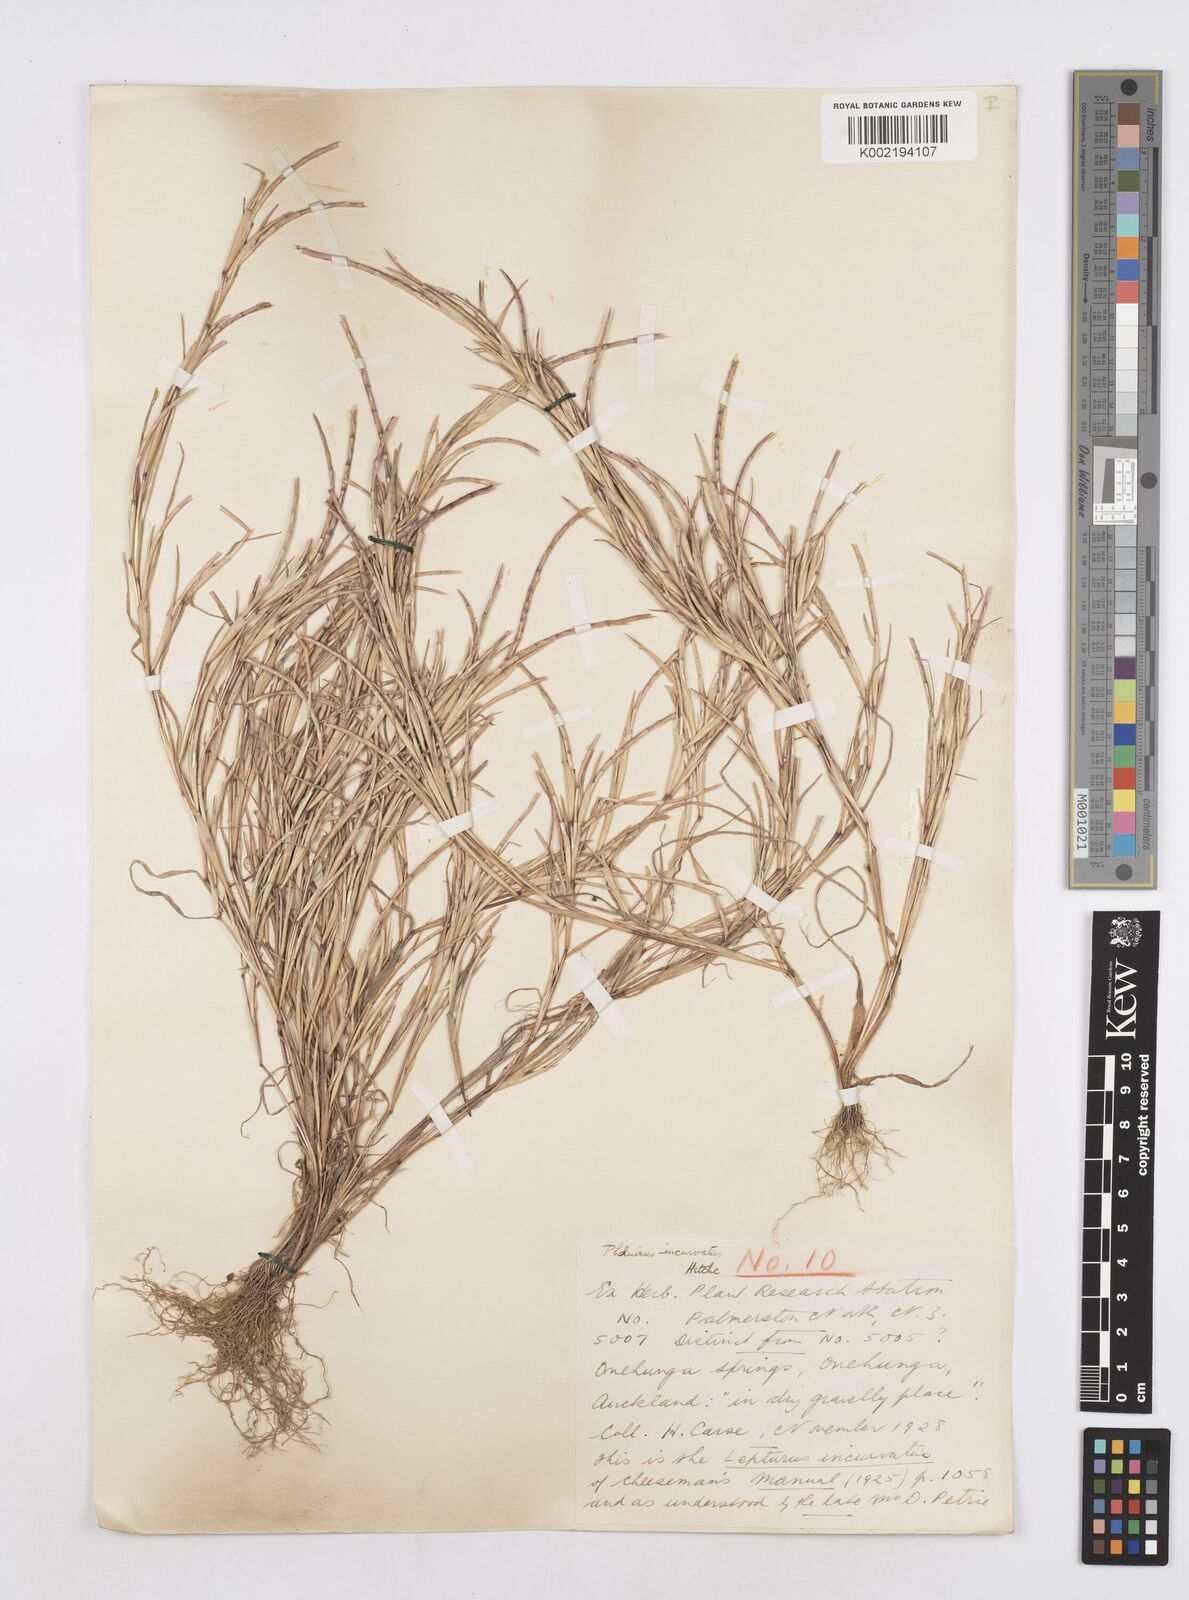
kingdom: Plantae
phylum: Tracheophyta
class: Liliopsida
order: Poales
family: Poaceae
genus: Parapholis
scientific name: Parapholis incurva
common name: Curved sicklegrass
